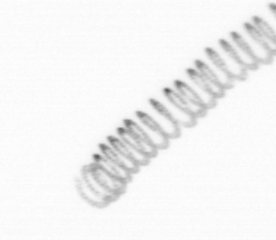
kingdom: Chromista
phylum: Ochrophyta
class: Bacillariophyceae
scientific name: Bacillariophyceae
